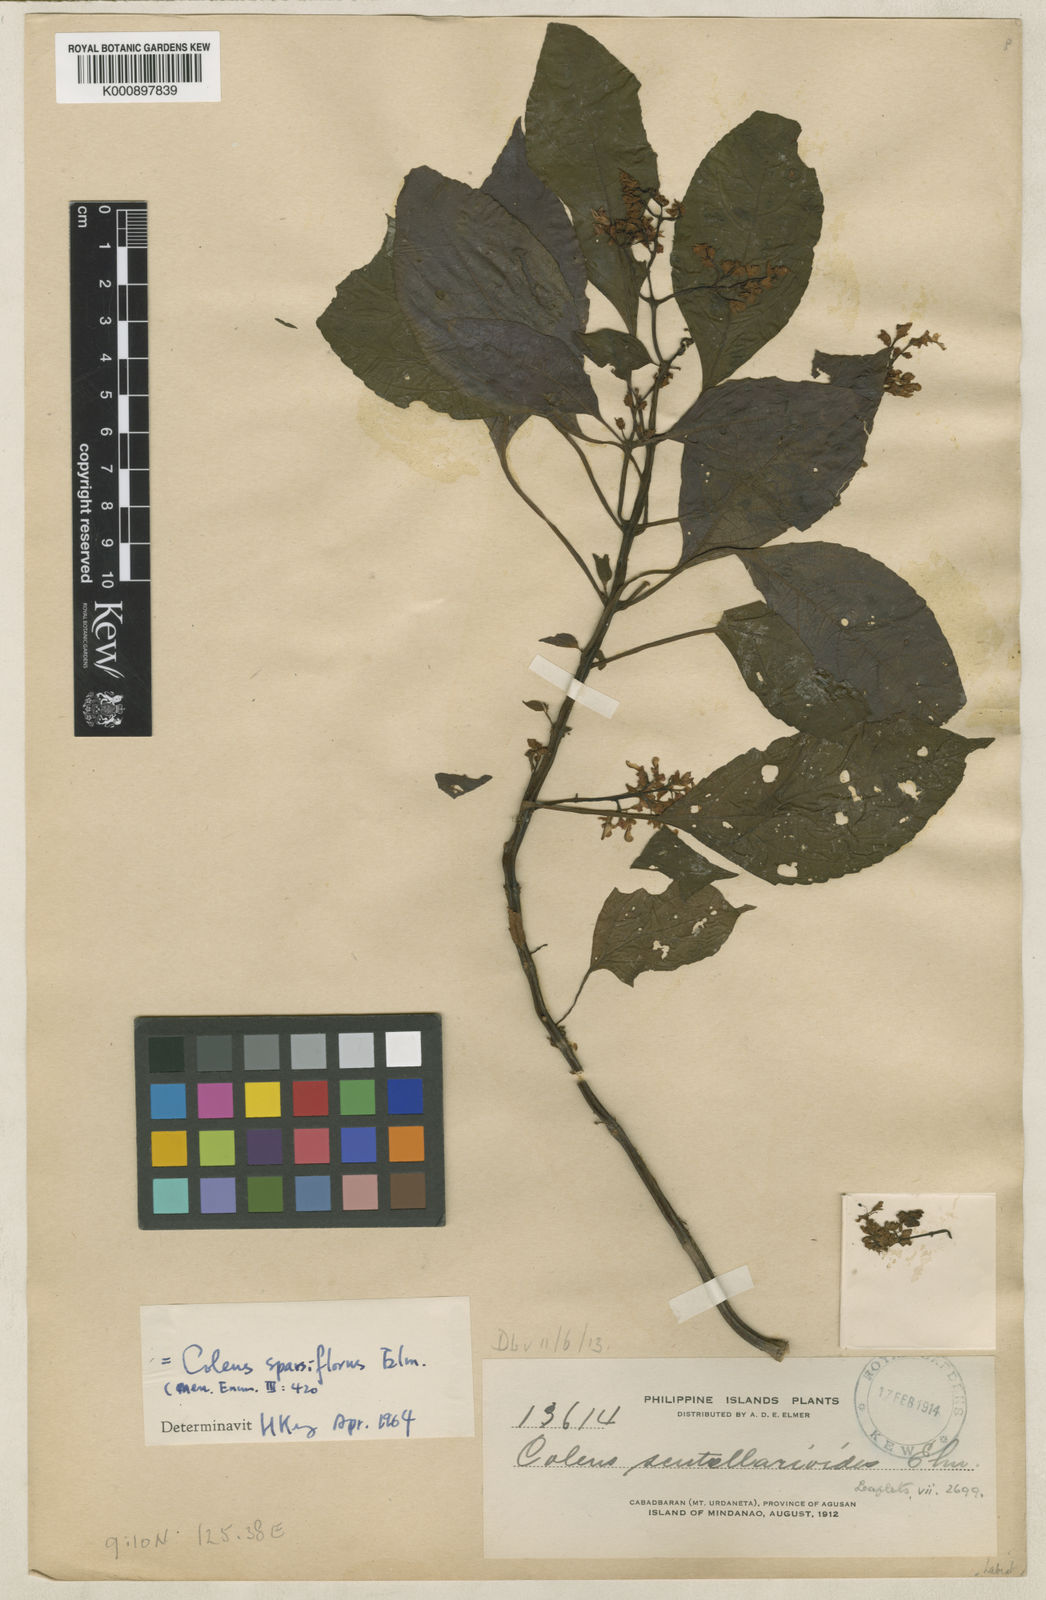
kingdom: Plantae
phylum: Tracheophyta
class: Magnoliopsida
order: Lamiales
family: Lamiaceae
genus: Coleus
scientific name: Coleus
